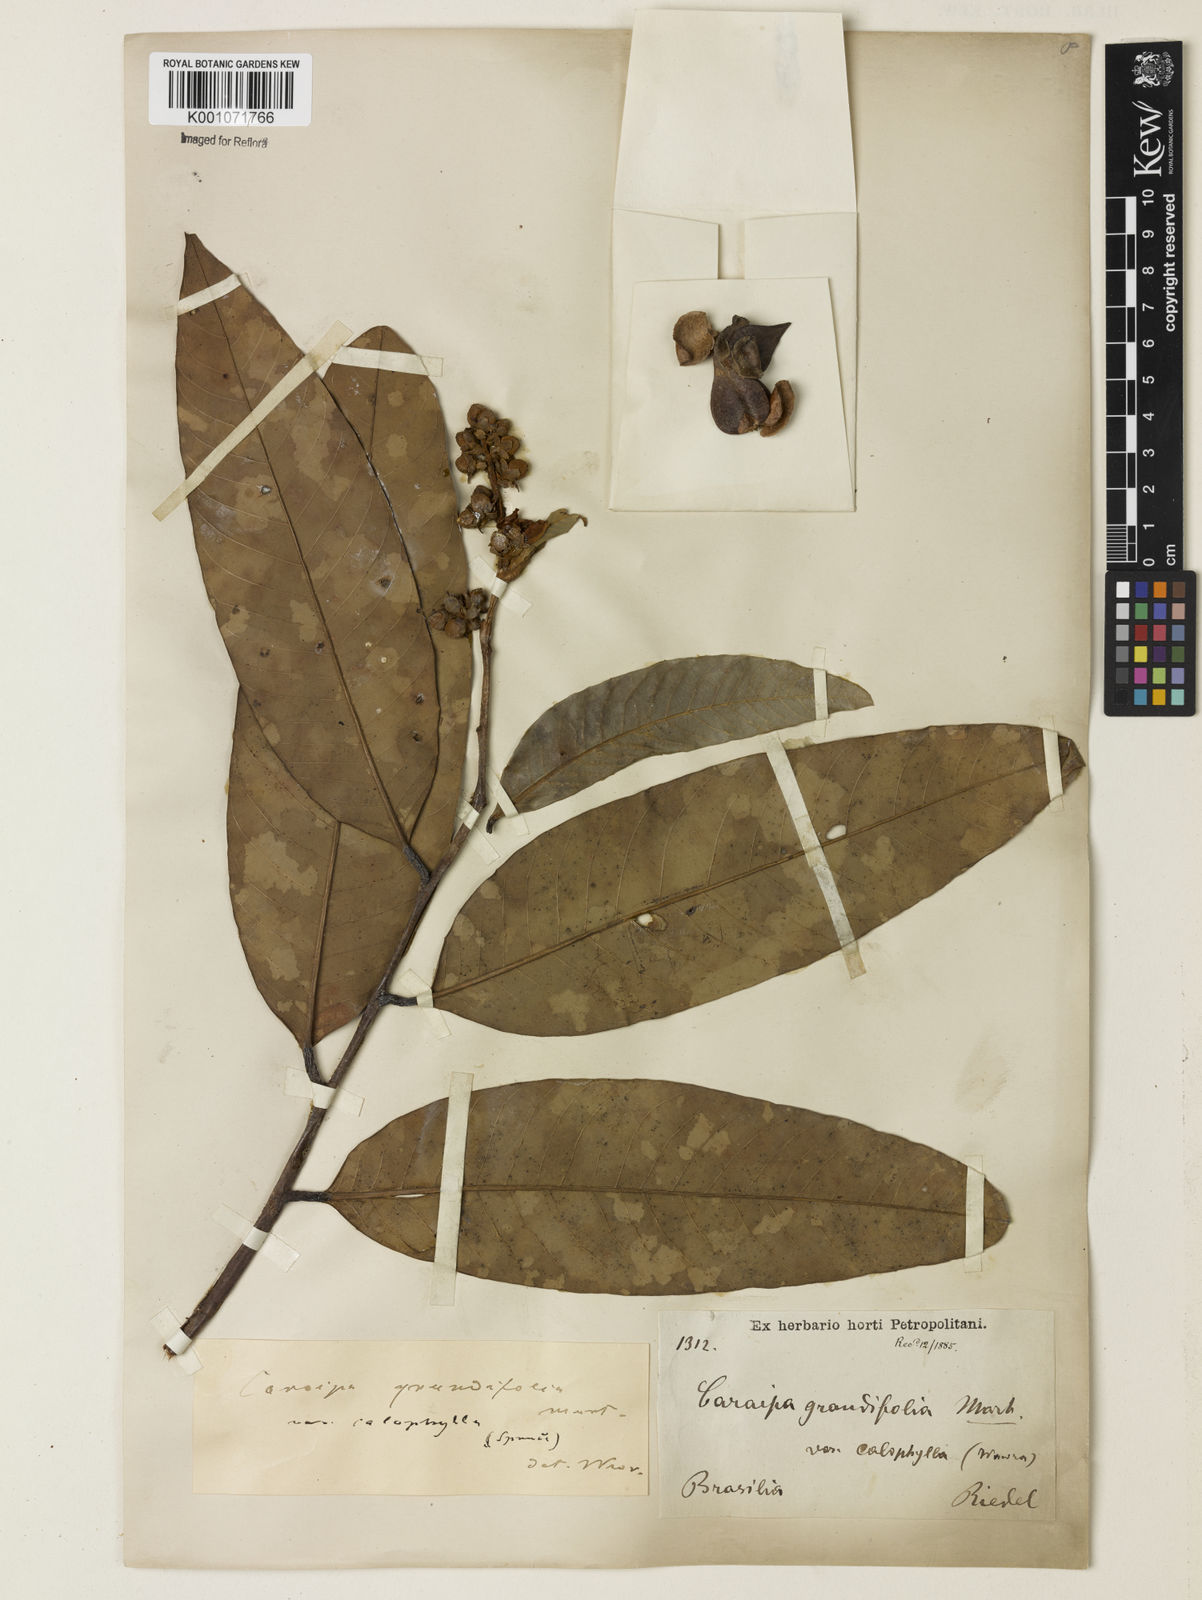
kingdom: Plantae
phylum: Tracheophyta
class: Magnoliopsida
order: Malpighiales
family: Calophyllaceae
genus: Caraipa
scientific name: Caraipa grandifolia
